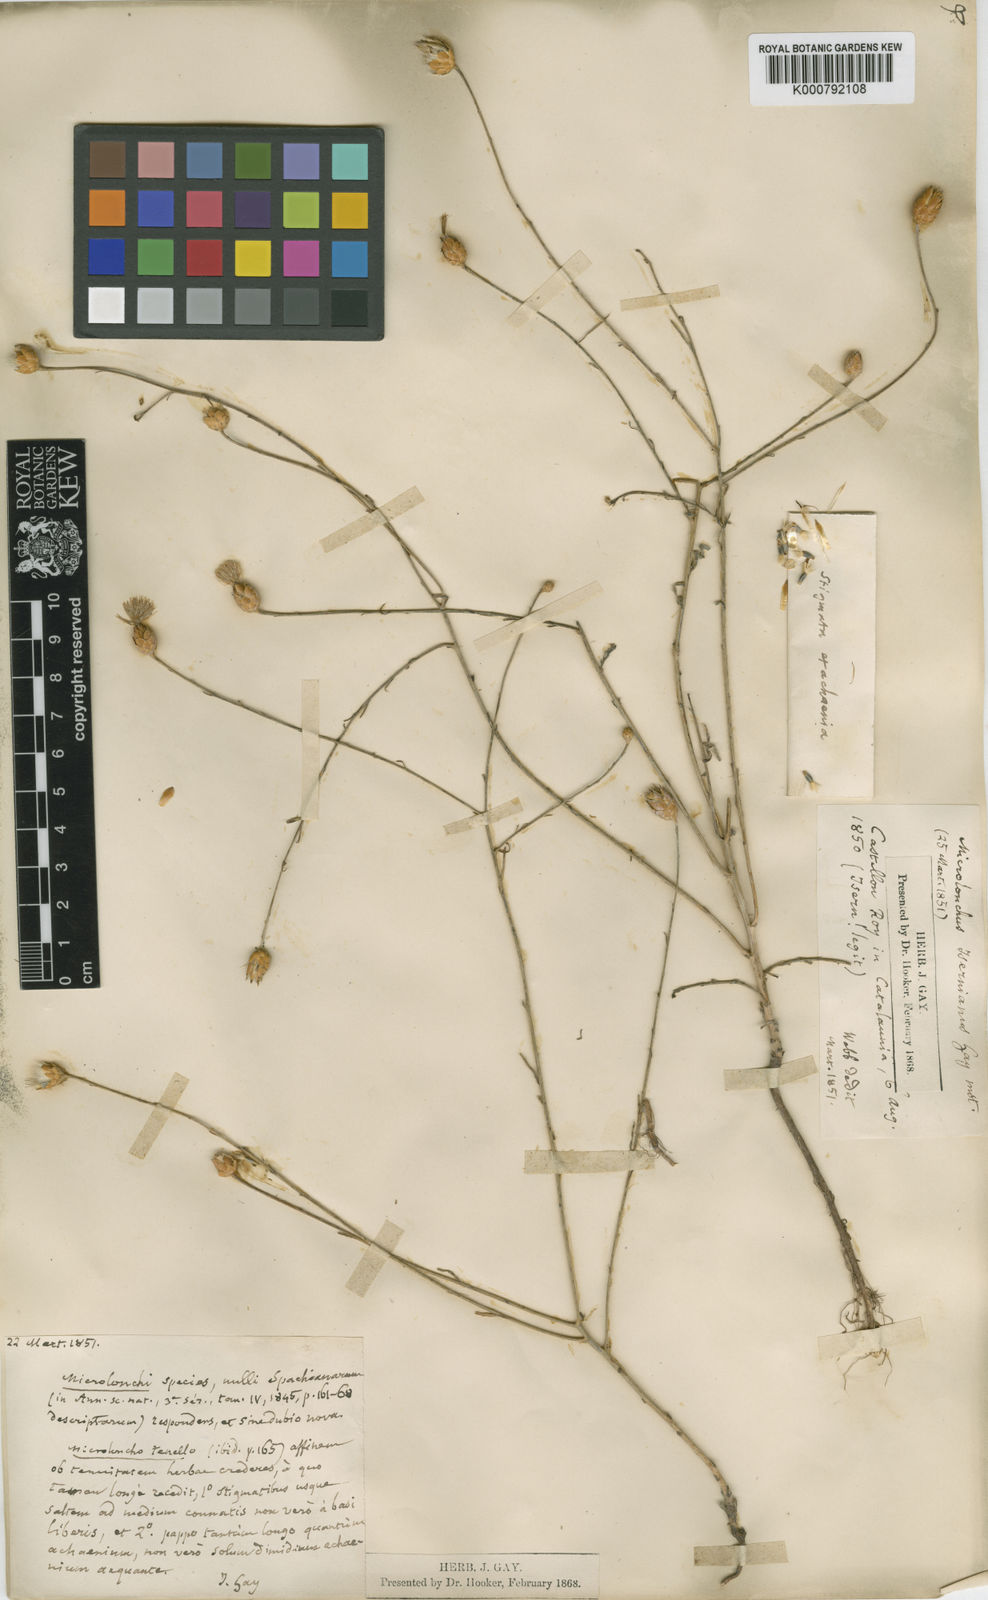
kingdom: Plantae
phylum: Tracheophyta
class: Magnoliopsida
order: Asterales
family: Asteraceae
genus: Mantisalca
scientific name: Mantisalca salmantica
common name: Dagger flower
